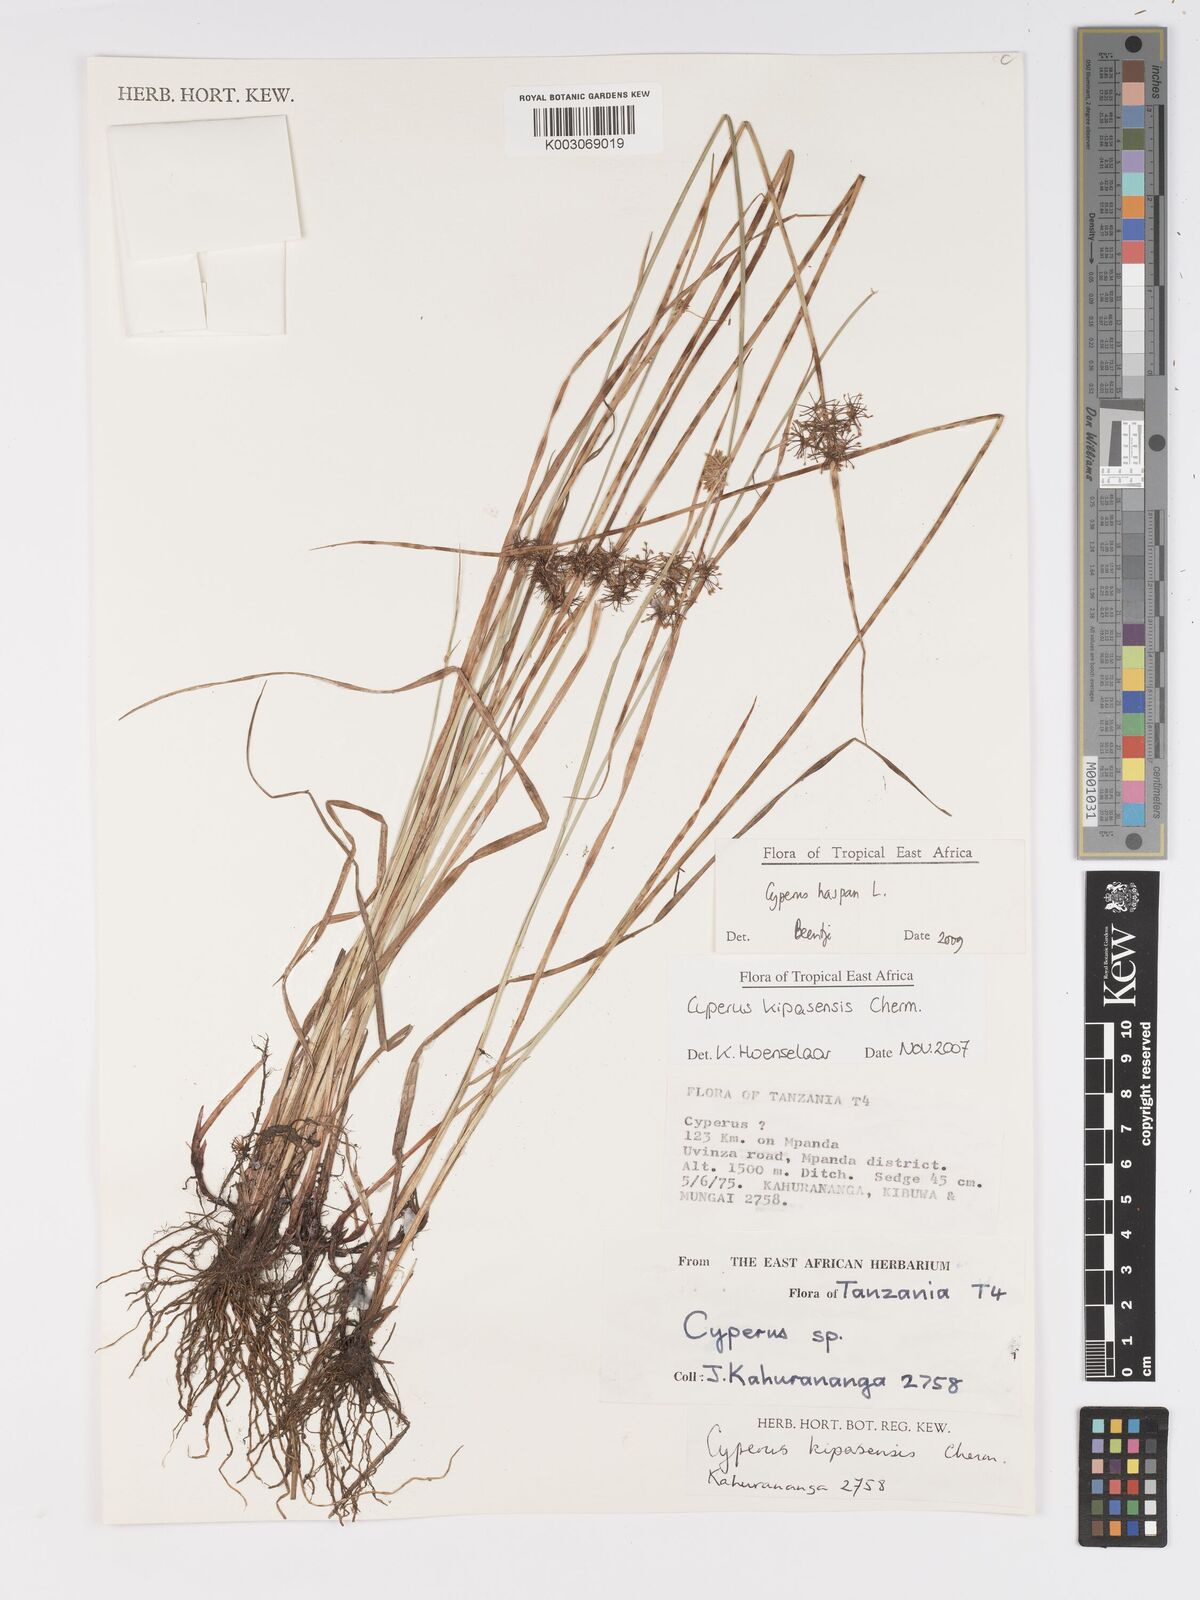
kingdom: Plantae
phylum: Tracheophyta
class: Liliopsida
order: Poales
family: Cyperaceae
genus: Cyperus
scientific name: Cyperus
